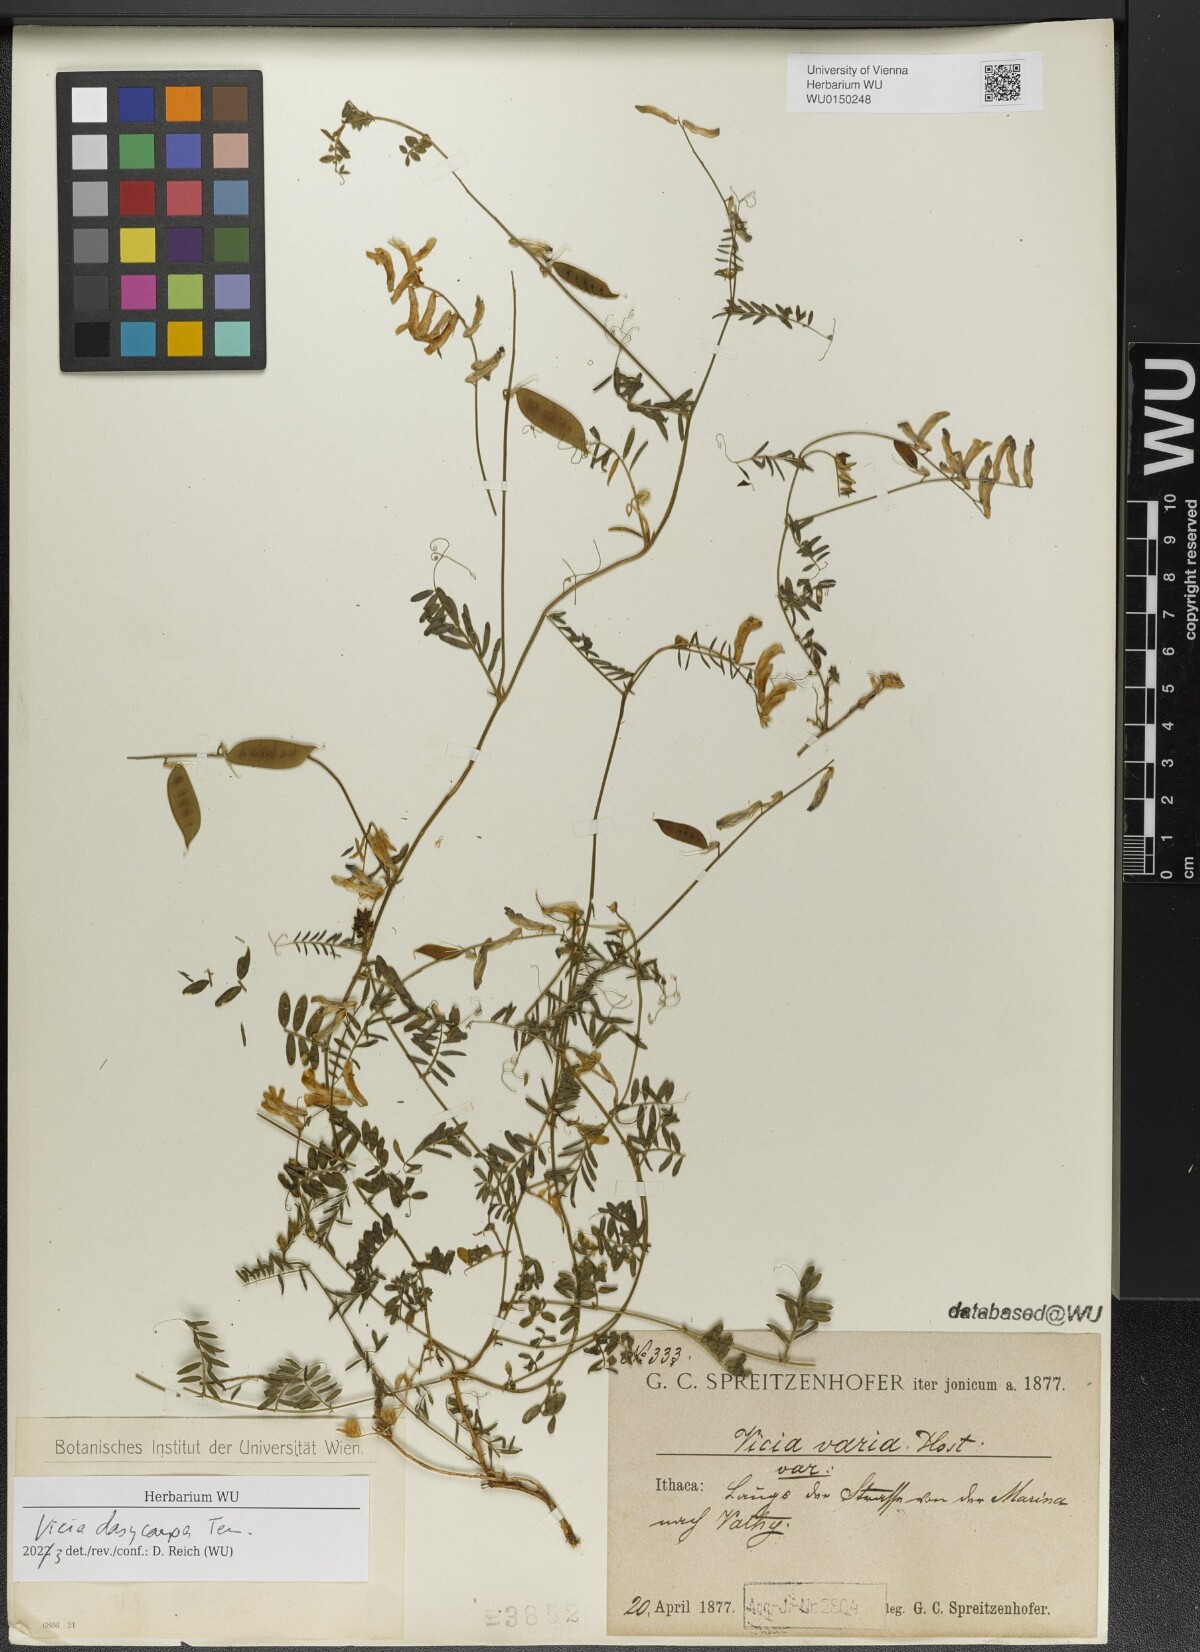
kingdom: Plantae
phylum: Tracheophyta
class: Magnoliopsida
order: Fabales
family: Fabaceae
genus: Vicia
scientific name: Vicia villosa
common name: Fodder vetch
